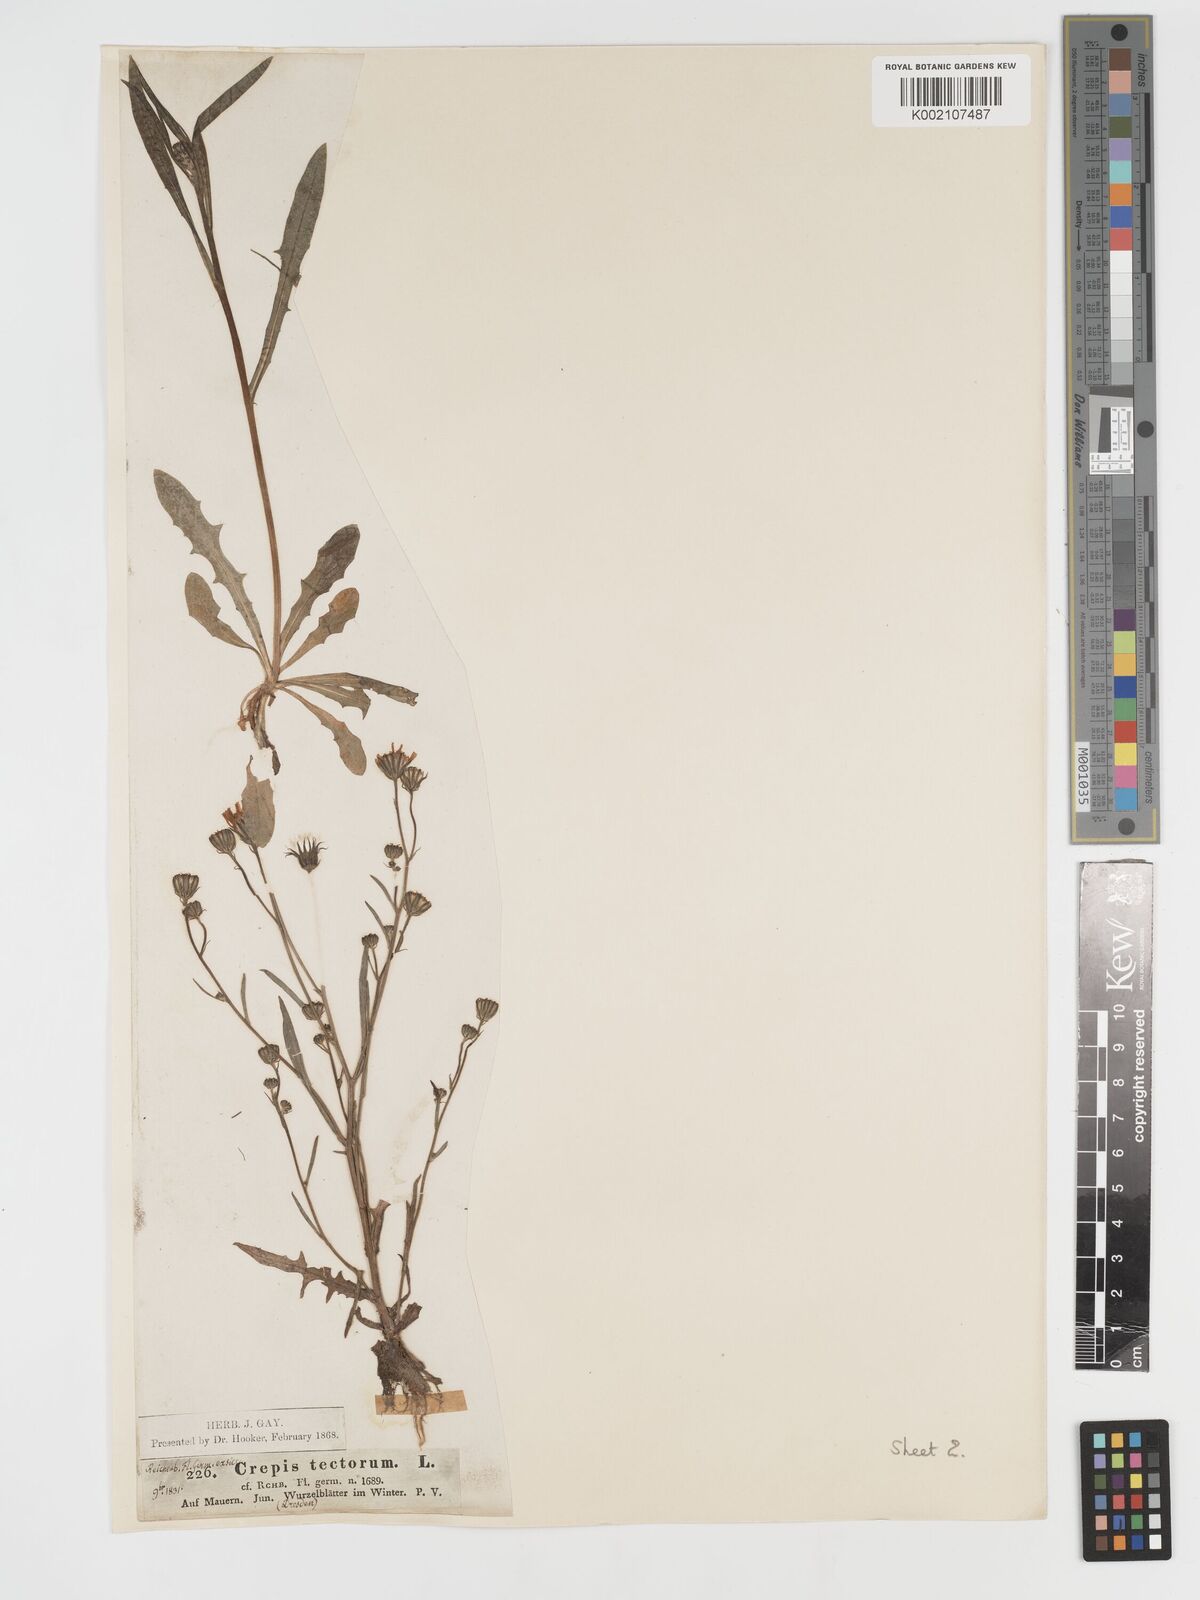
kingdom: Plantae
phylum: Tracheophyta
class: Magnoliopsida
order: Asterales
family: Asteraceae
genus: Crepis
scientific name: Crepis tectorum
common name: Narrow-leaved hawk's-beard
